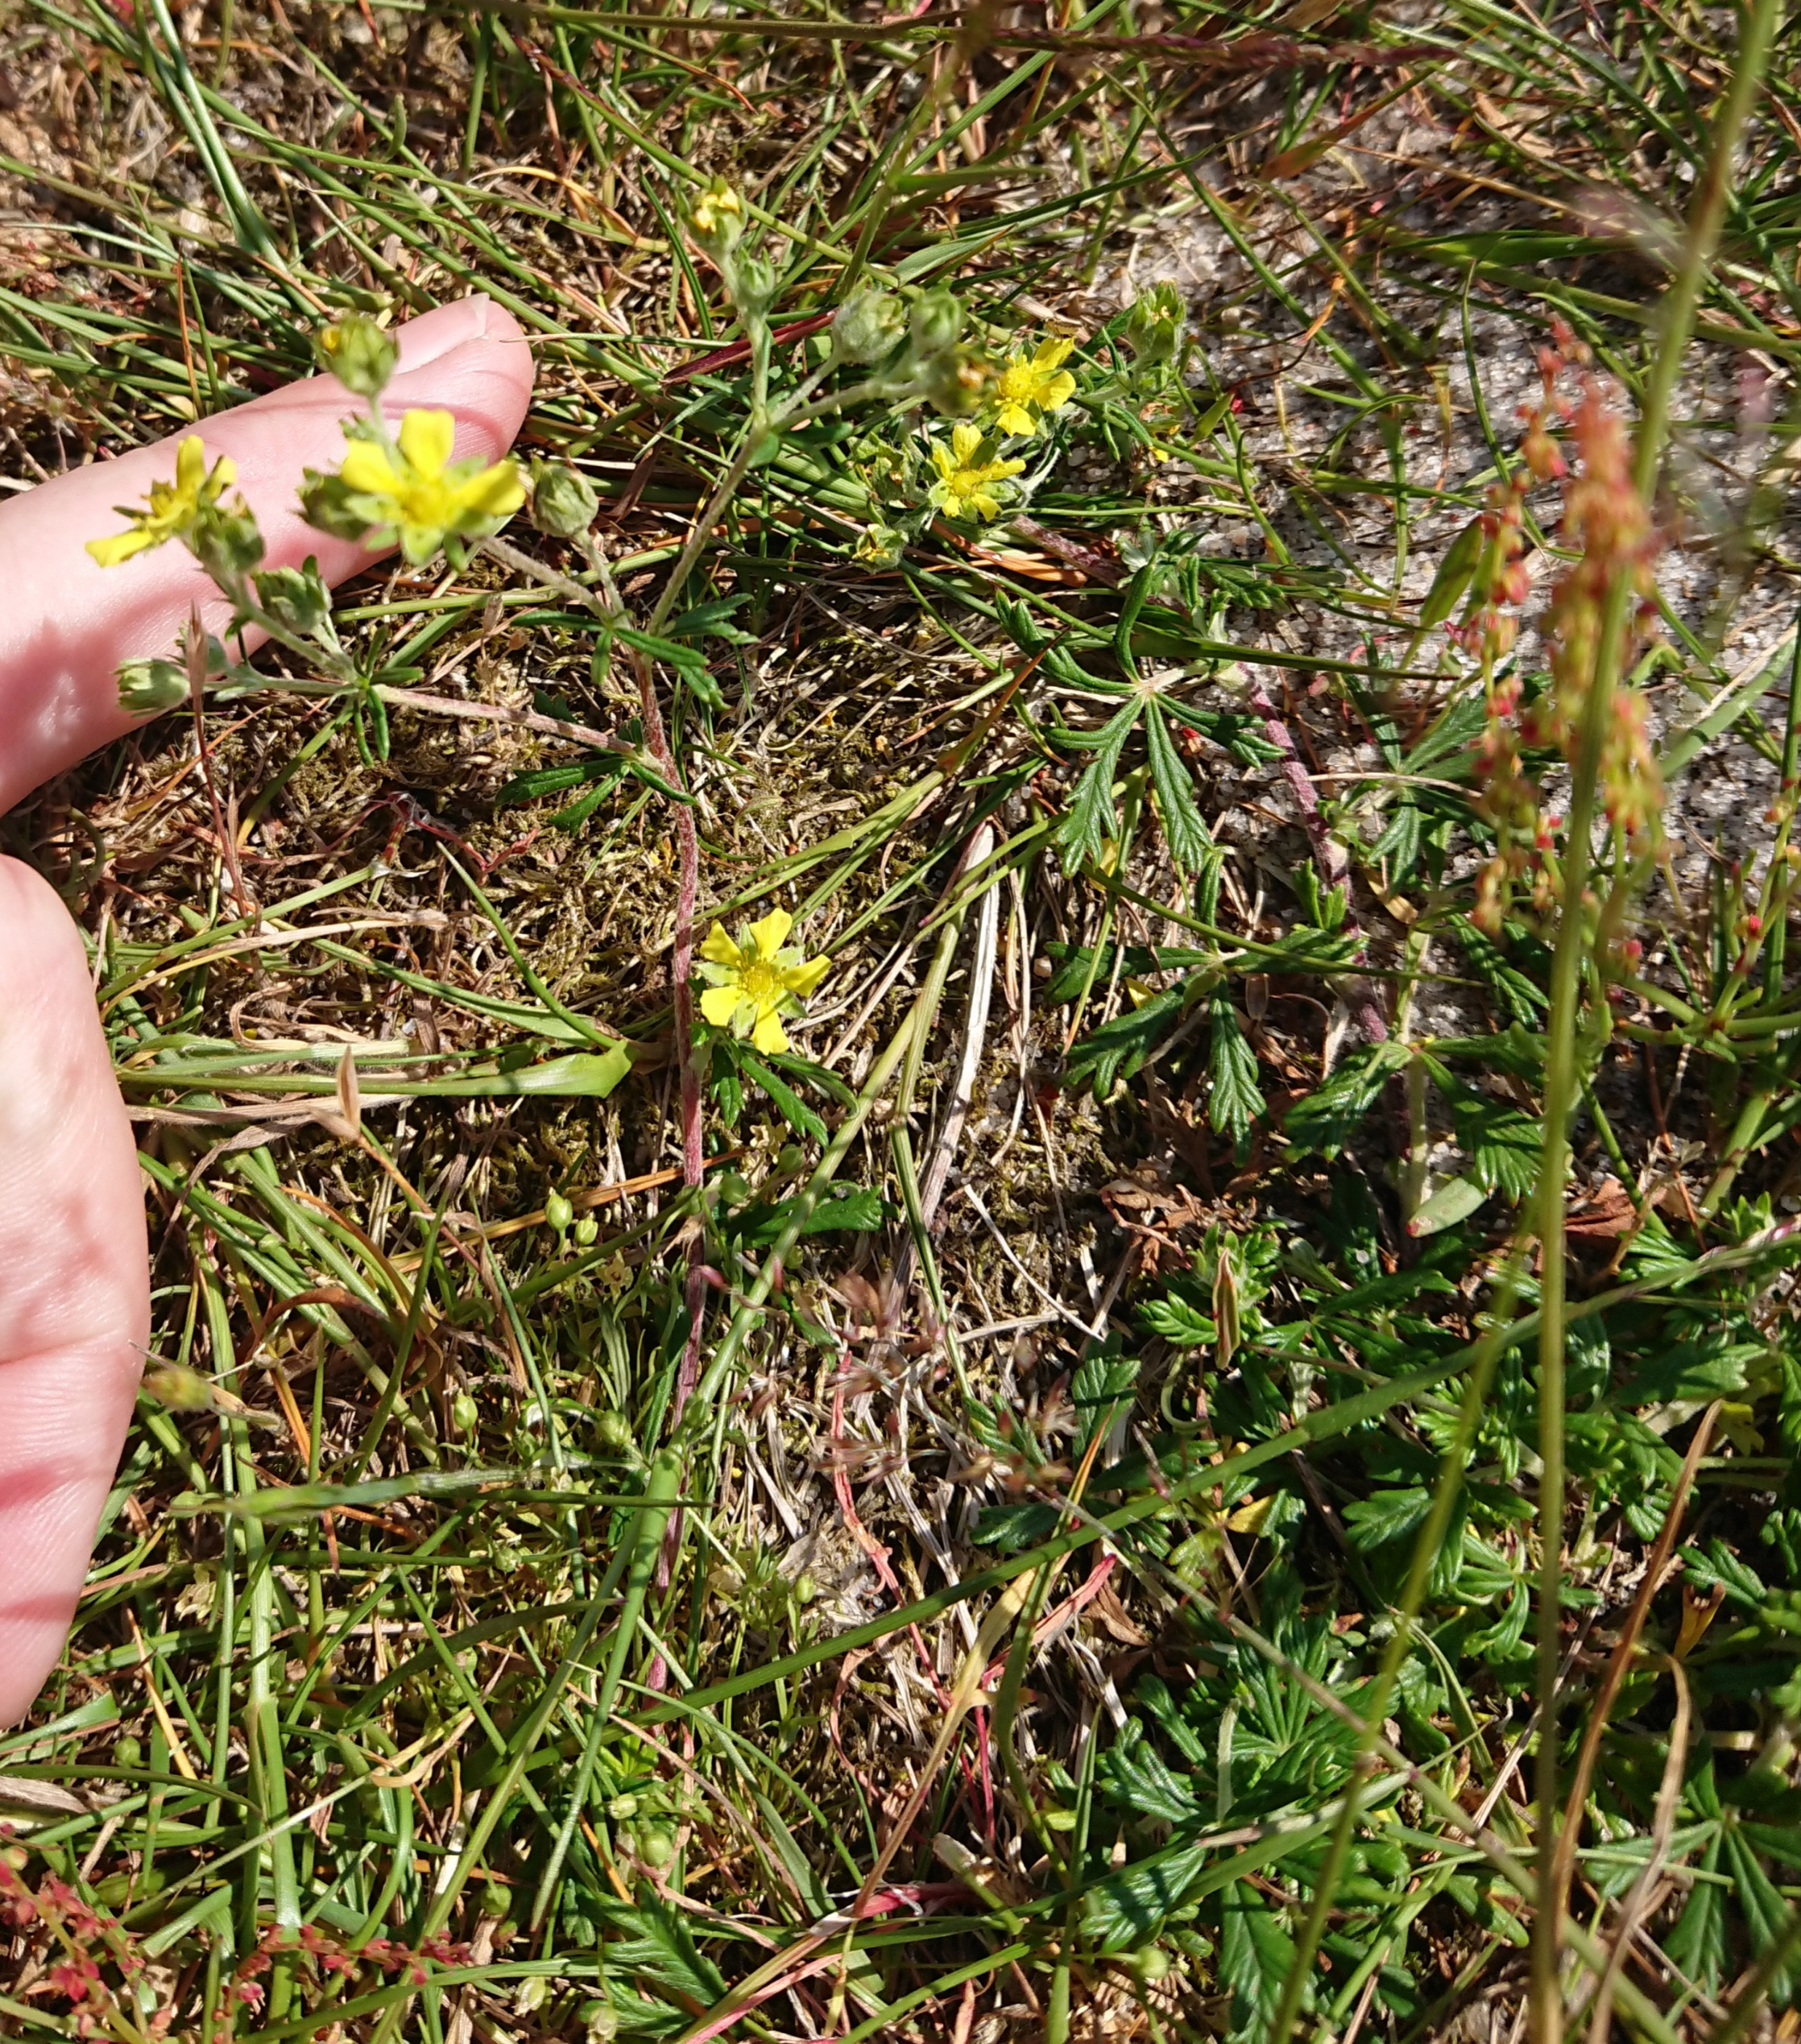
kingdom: Plantae
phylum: Tracheophyta
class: Magnoliopsida
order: Rosales
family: Rosaceae
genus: Potentilla
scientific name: Potentilla argentea
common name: Sølv-potentil
